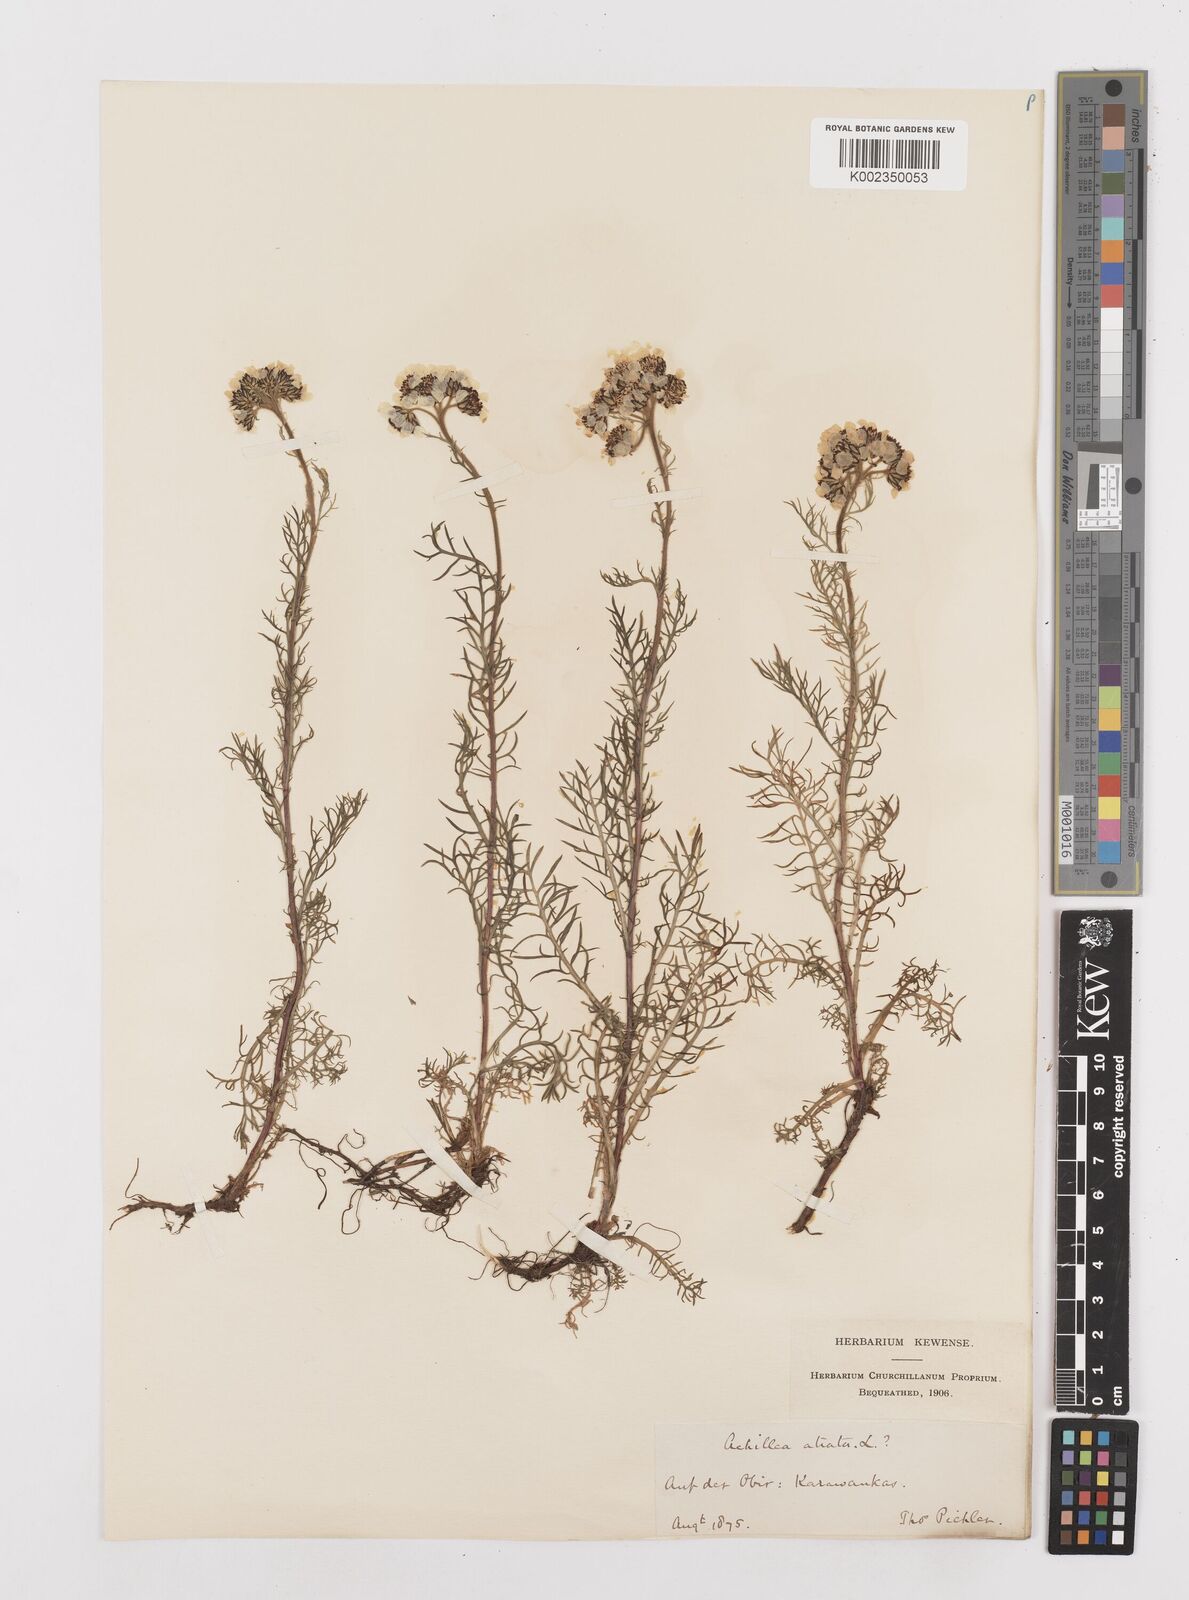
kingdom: Plantae
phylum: Tracheophyta
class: Magnoliopsida
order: Asterales
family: Asteraceae
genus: Achillea
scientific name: Achillea atrata
